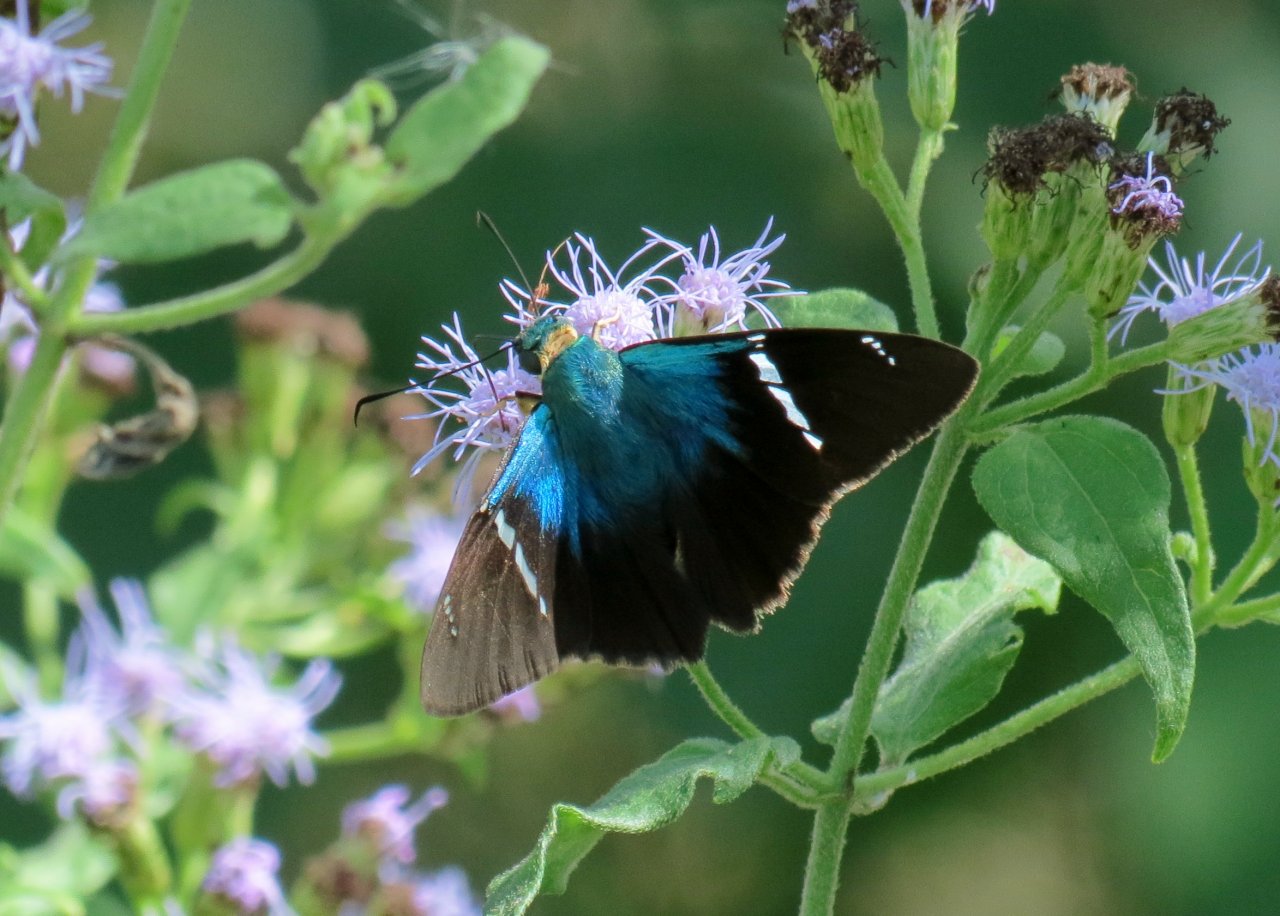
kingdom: Animalia
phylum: Arthropoda
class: Insecta
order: Lepidoptera
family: Hesperiidae
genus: Astraptes
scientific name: Astraptes fulgerator
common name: Two-barred Flasher
